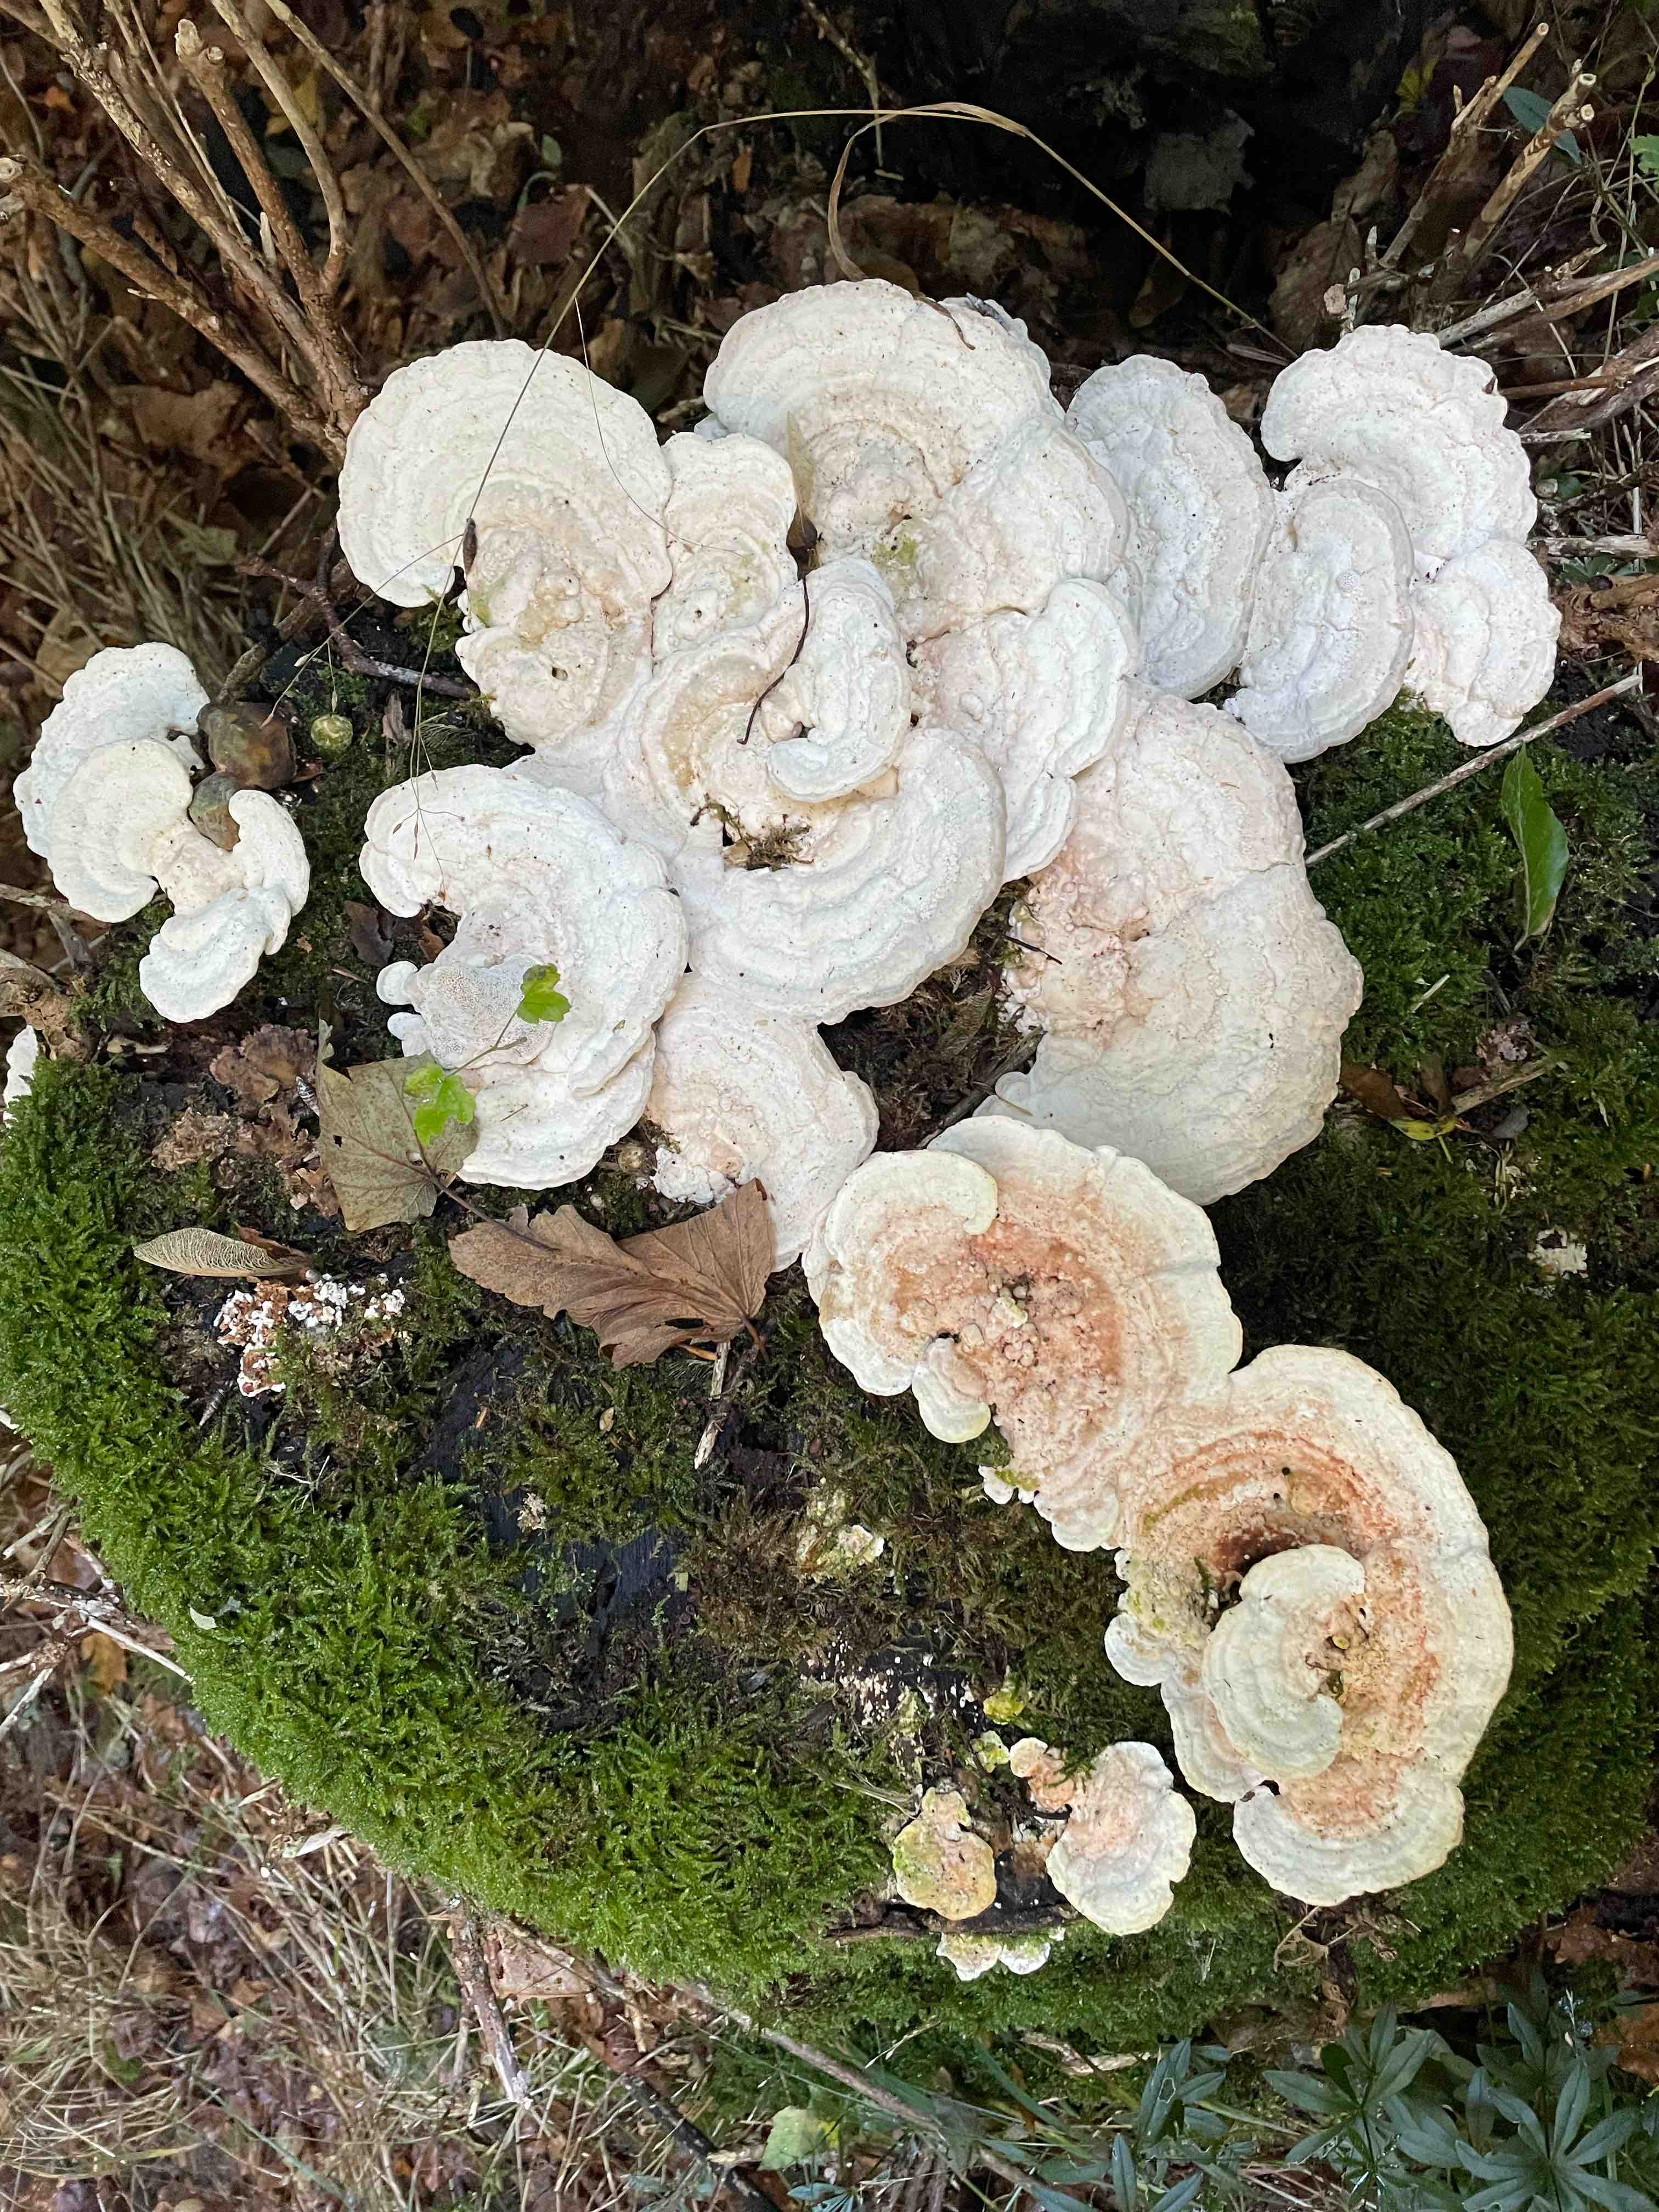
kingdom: Fungi
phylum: Basidiomycota
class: Agaricomycetes
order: Polyporales
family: Polyporaceae
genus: Trametes
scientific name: Trametes gibbosa
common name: puklet læderporesvamp
